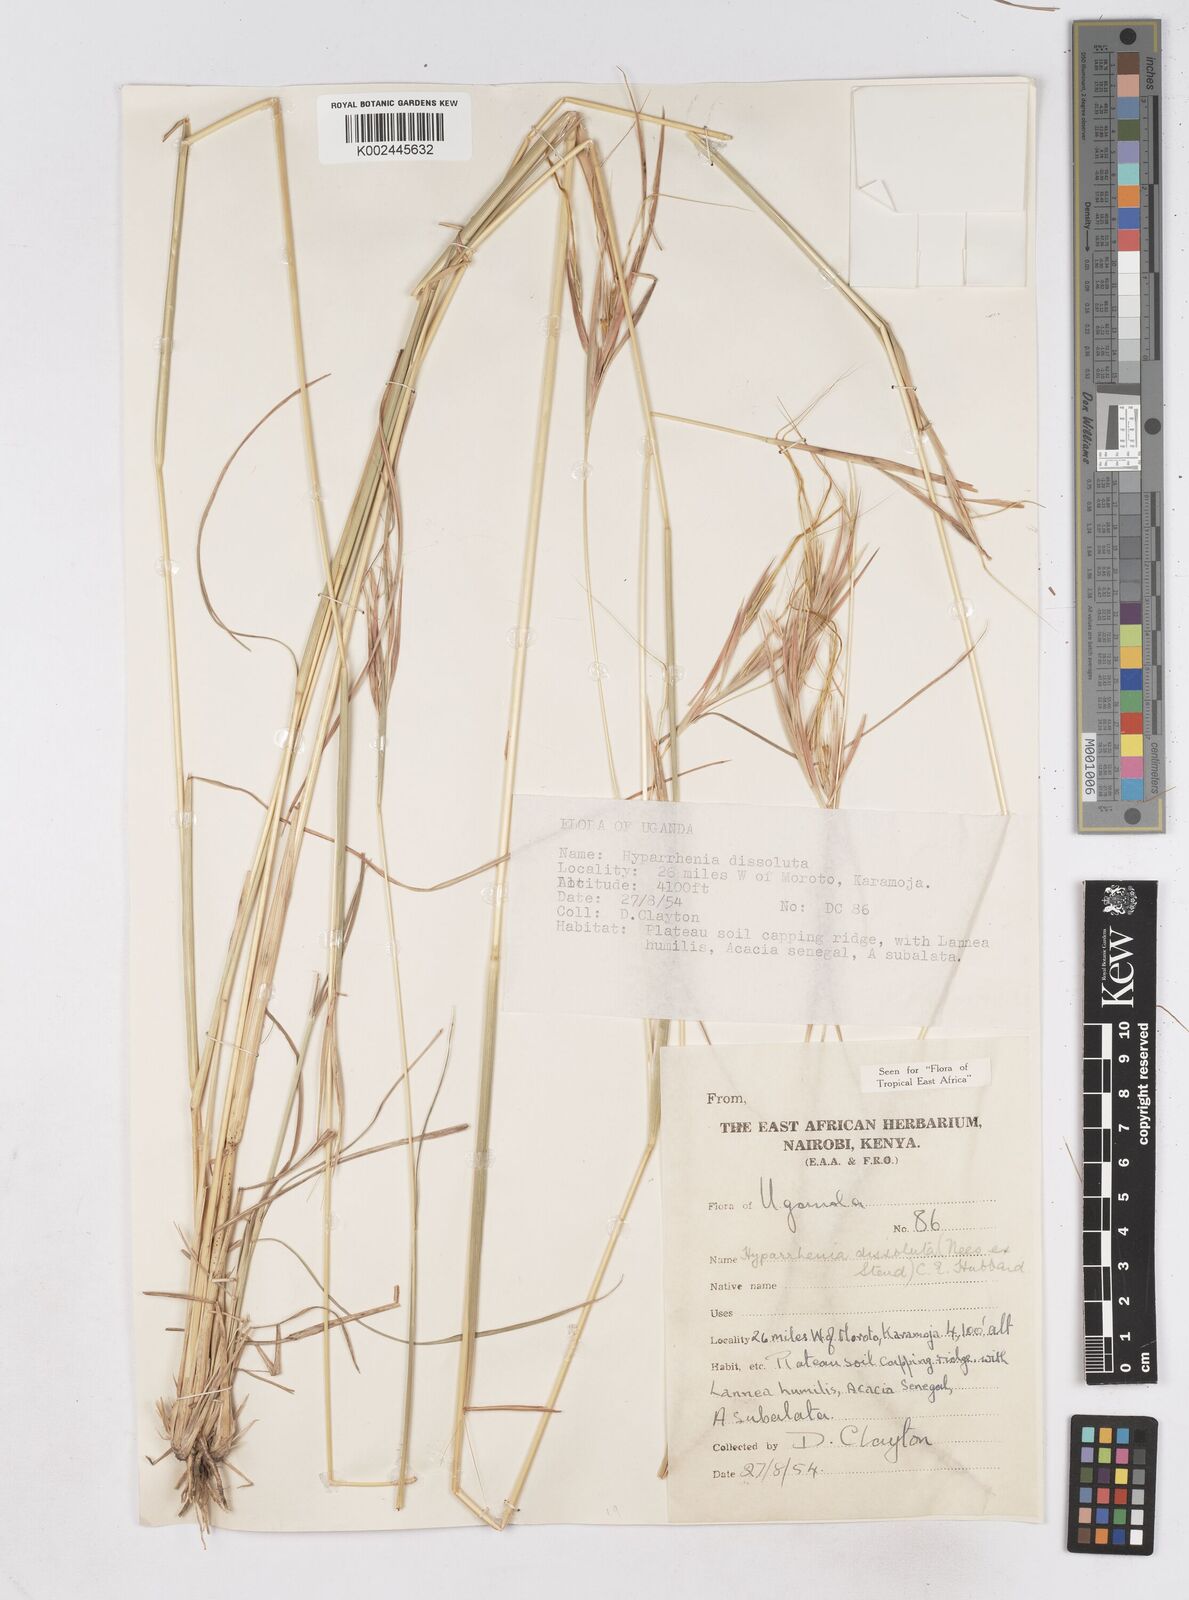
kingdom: Plantae
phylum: Tracheophyta
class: Liliopsida
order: Poales
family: Poaceae
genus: Hyperthelia
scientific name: Hyperthelia dissoluta
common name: Yellow thatching grass
